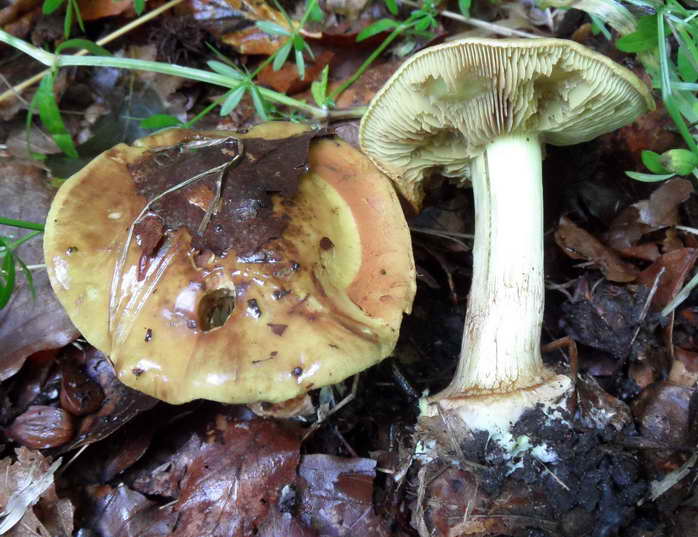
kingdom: Fungi
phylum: Basidiomycota
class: Agaricomycetes
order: Agaricales
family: Cortinariaceae
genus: Calonarius
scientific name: Calonarius citrinus
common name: citrongul slørhat
